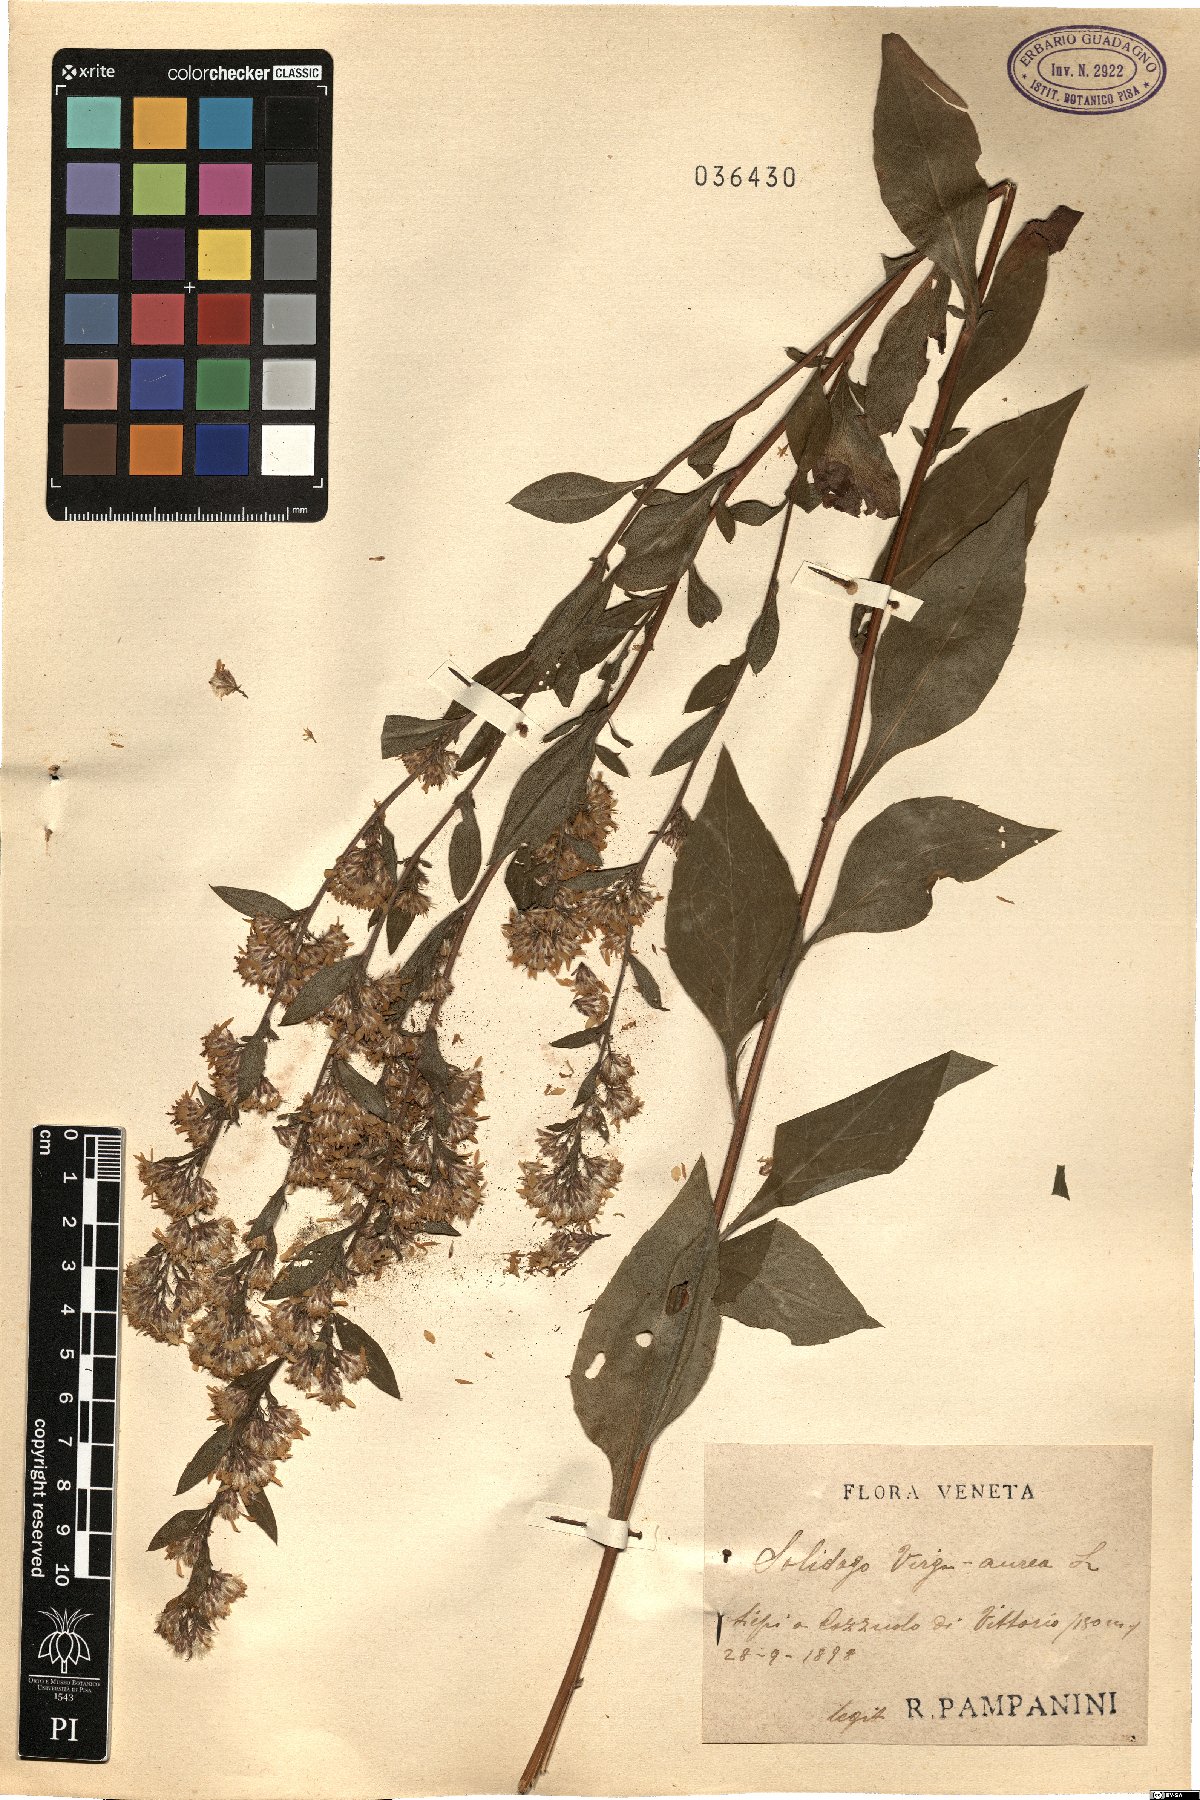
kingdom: Plantae
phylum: Tracheophyta
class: Magnoliopsida
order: Asterales
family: Asteraceae
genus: Solidago
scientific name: Solidago virgaurea
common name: Goldenrod
